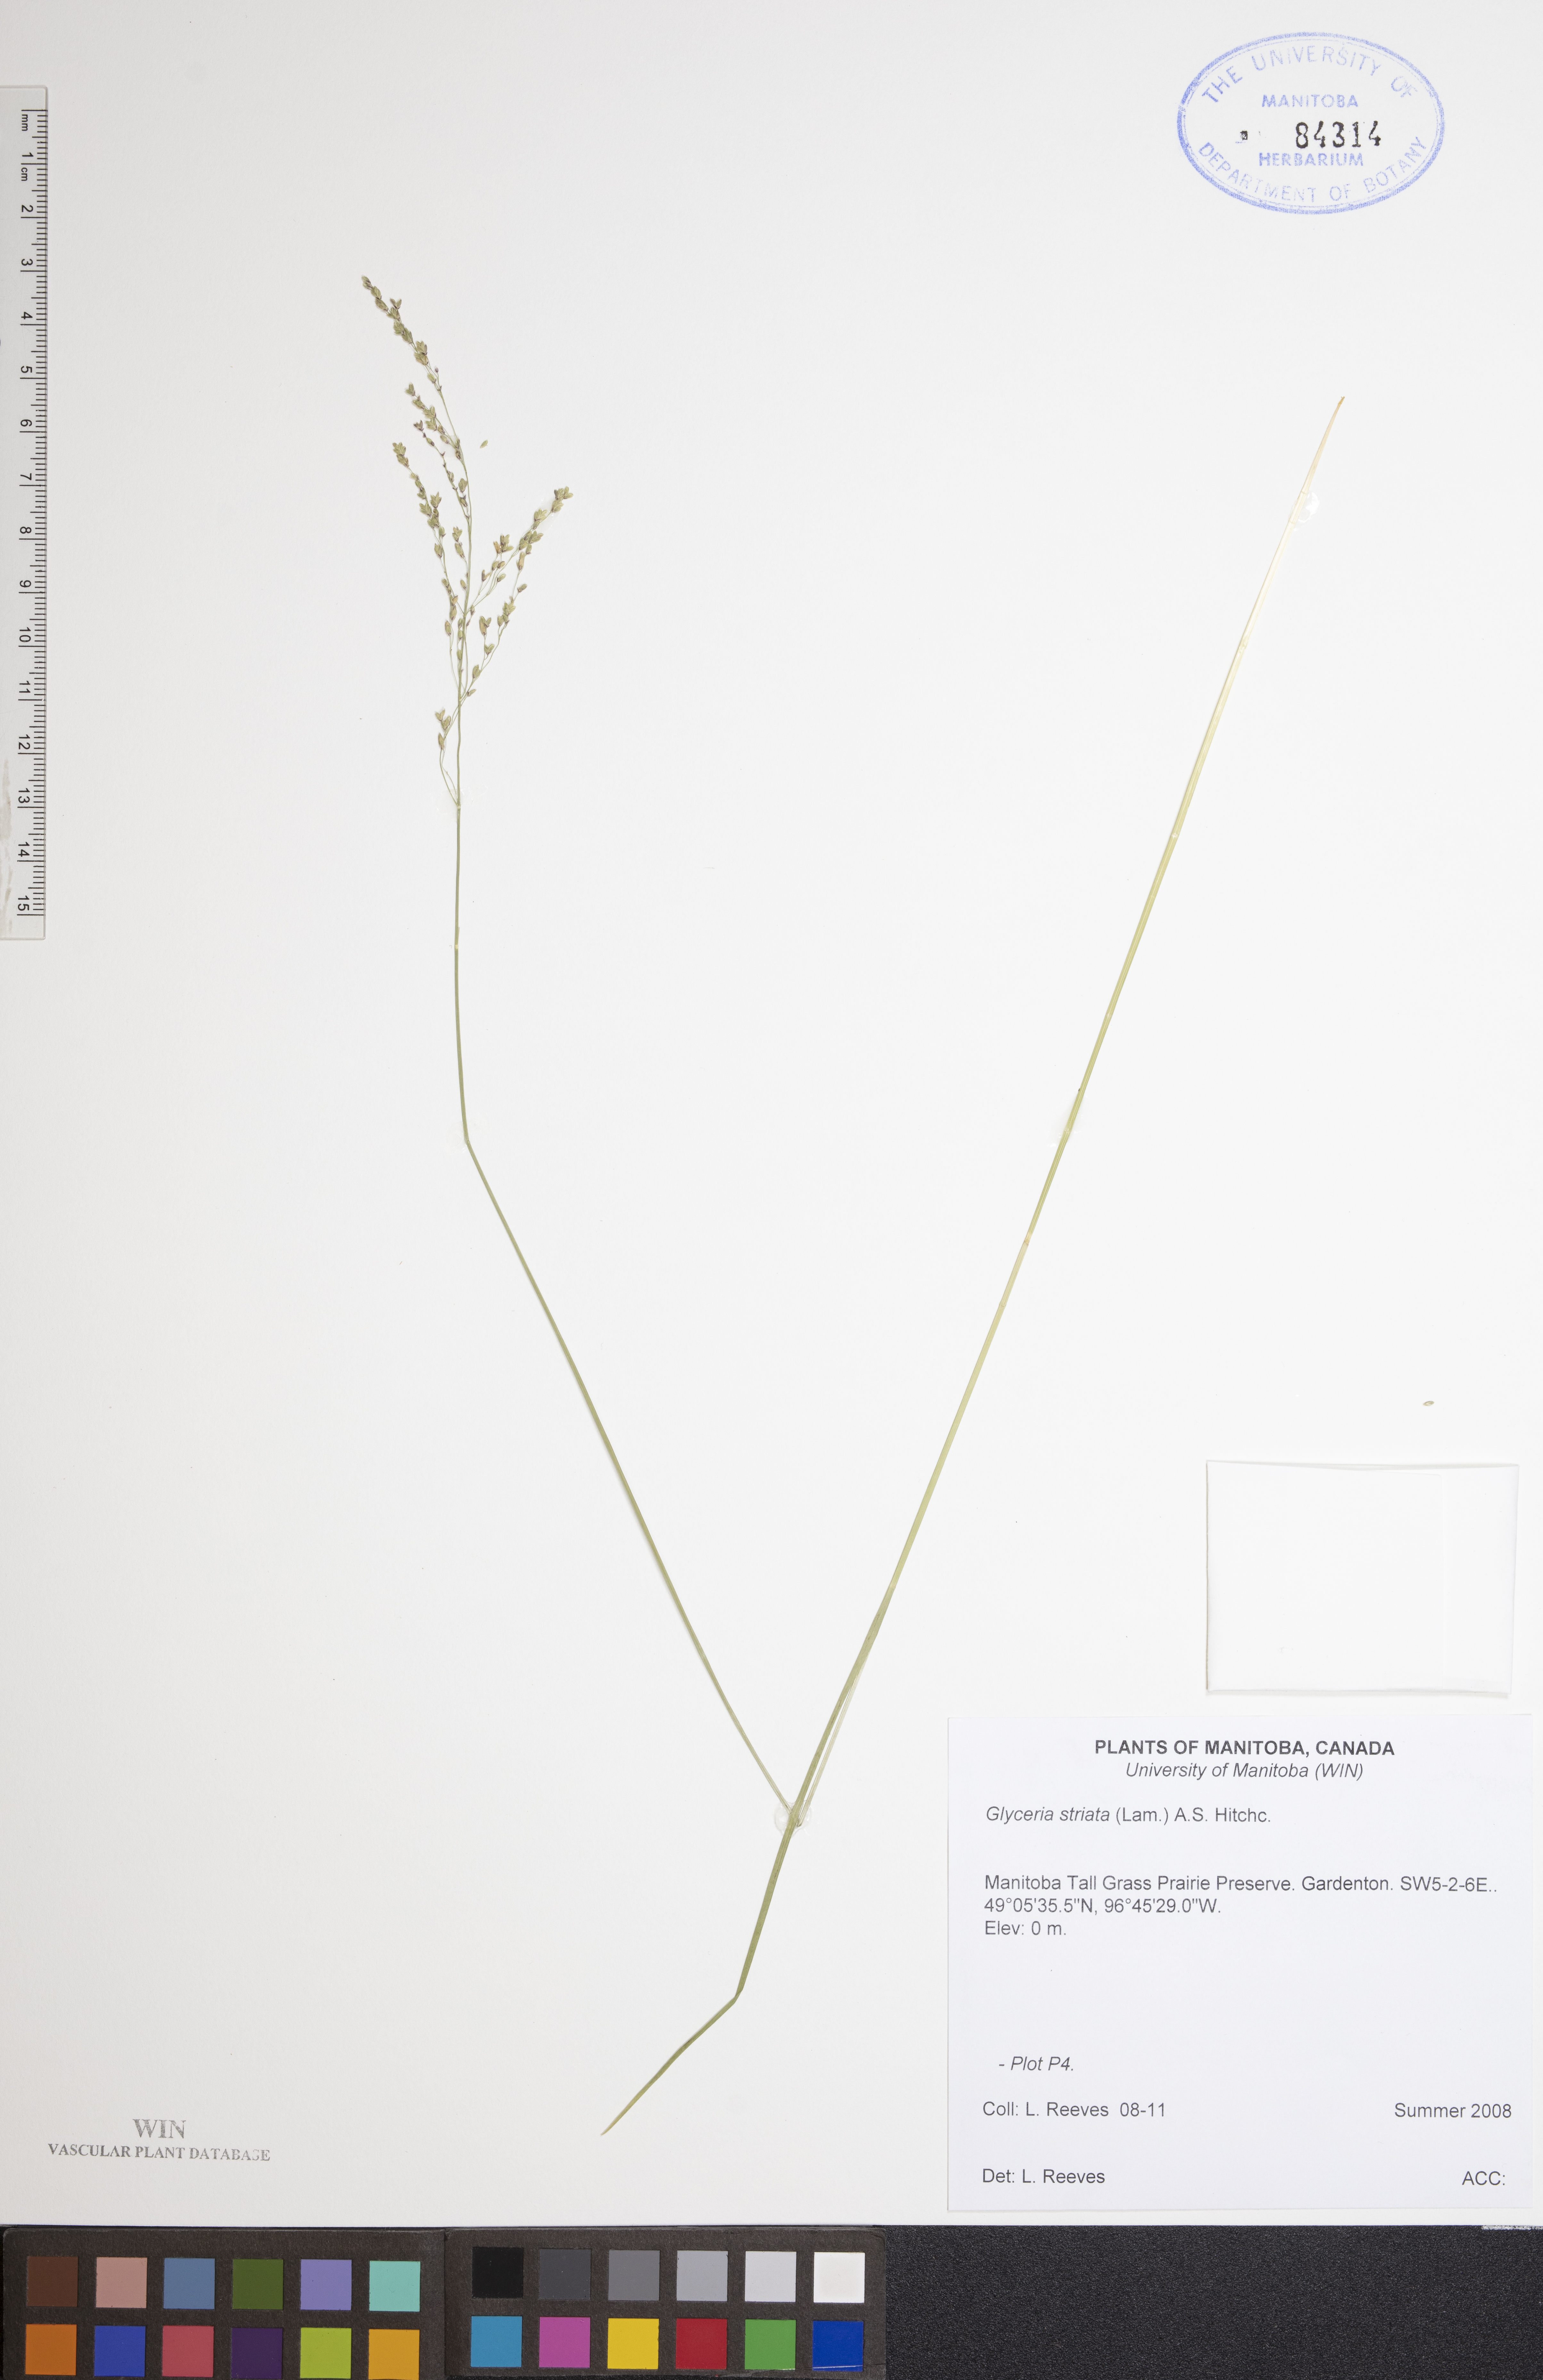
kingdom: Plantae
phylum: Tracheophyta
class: Liliopsida
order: Poales
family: Poaceae
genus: Glyceria
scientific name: Glyceria striata
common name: Fowl manna grass
